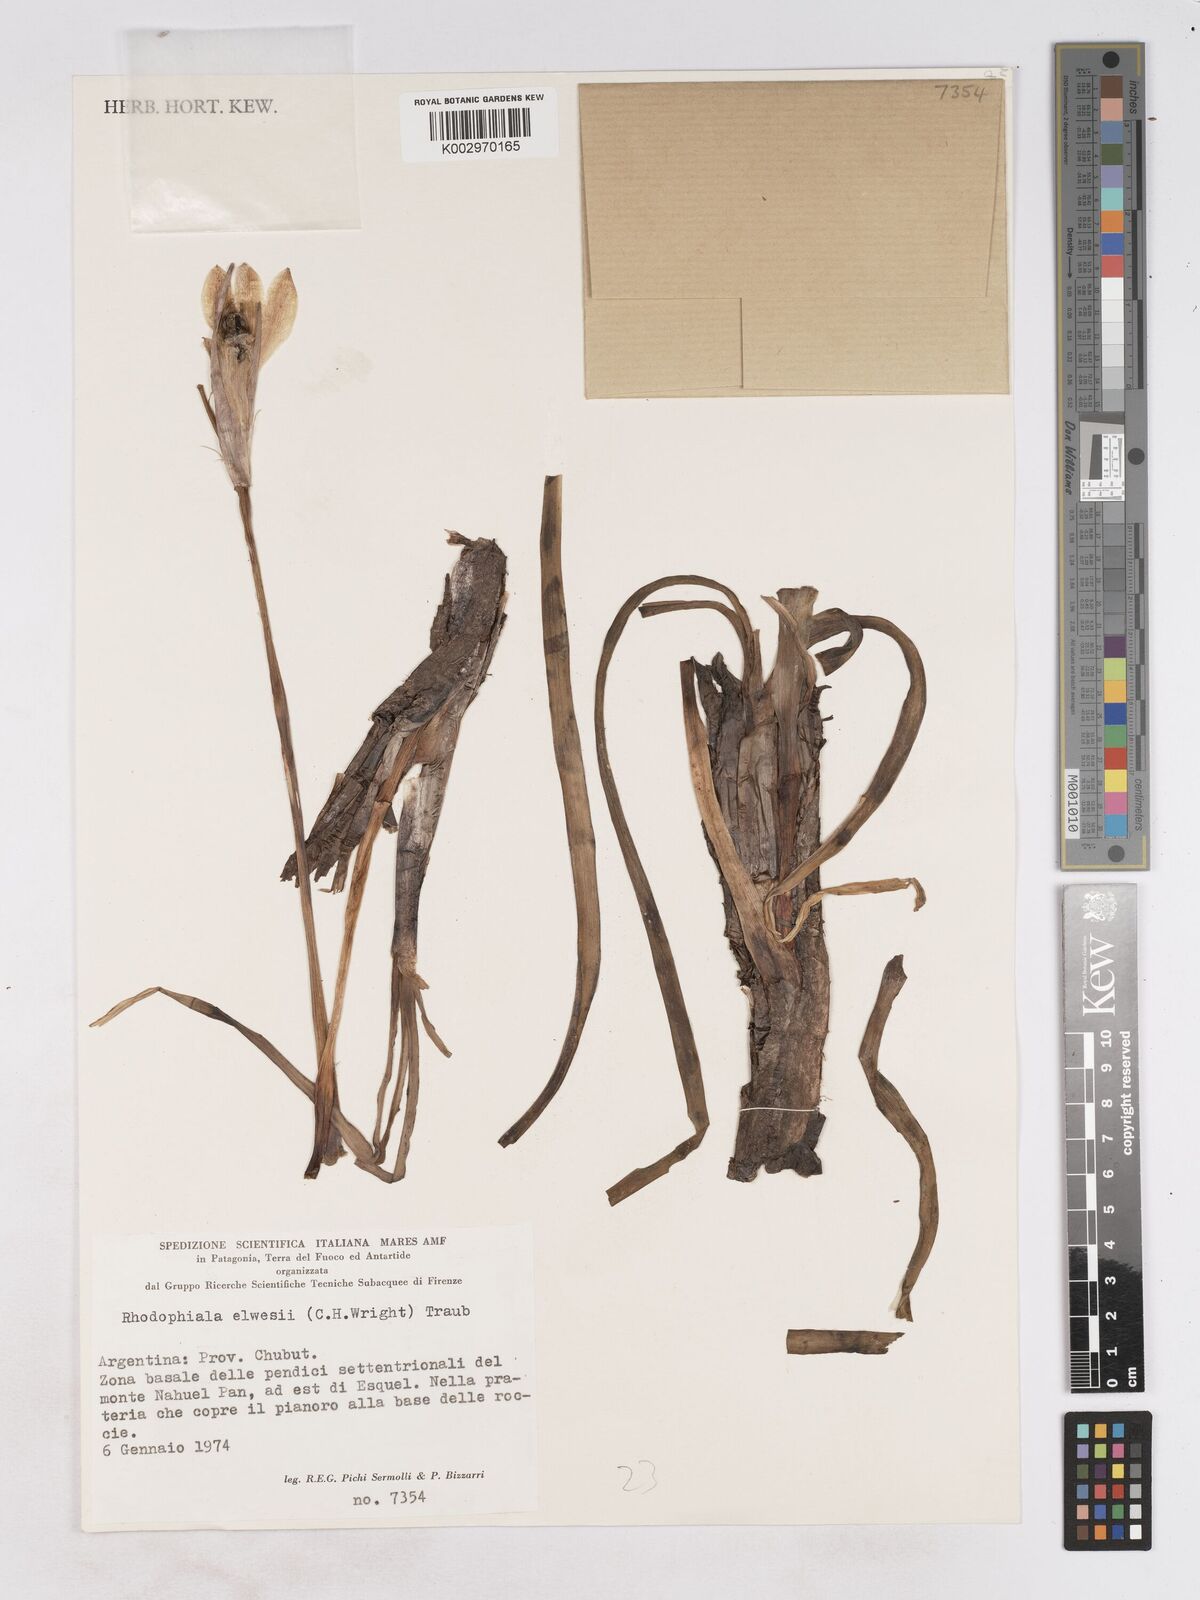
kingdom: Plantae
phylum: Tracheophyta
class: Liliopsida
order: Asparagales
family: Amaryllidaceae
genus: Zephyranthes
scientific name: Zephyranthes elwesii
